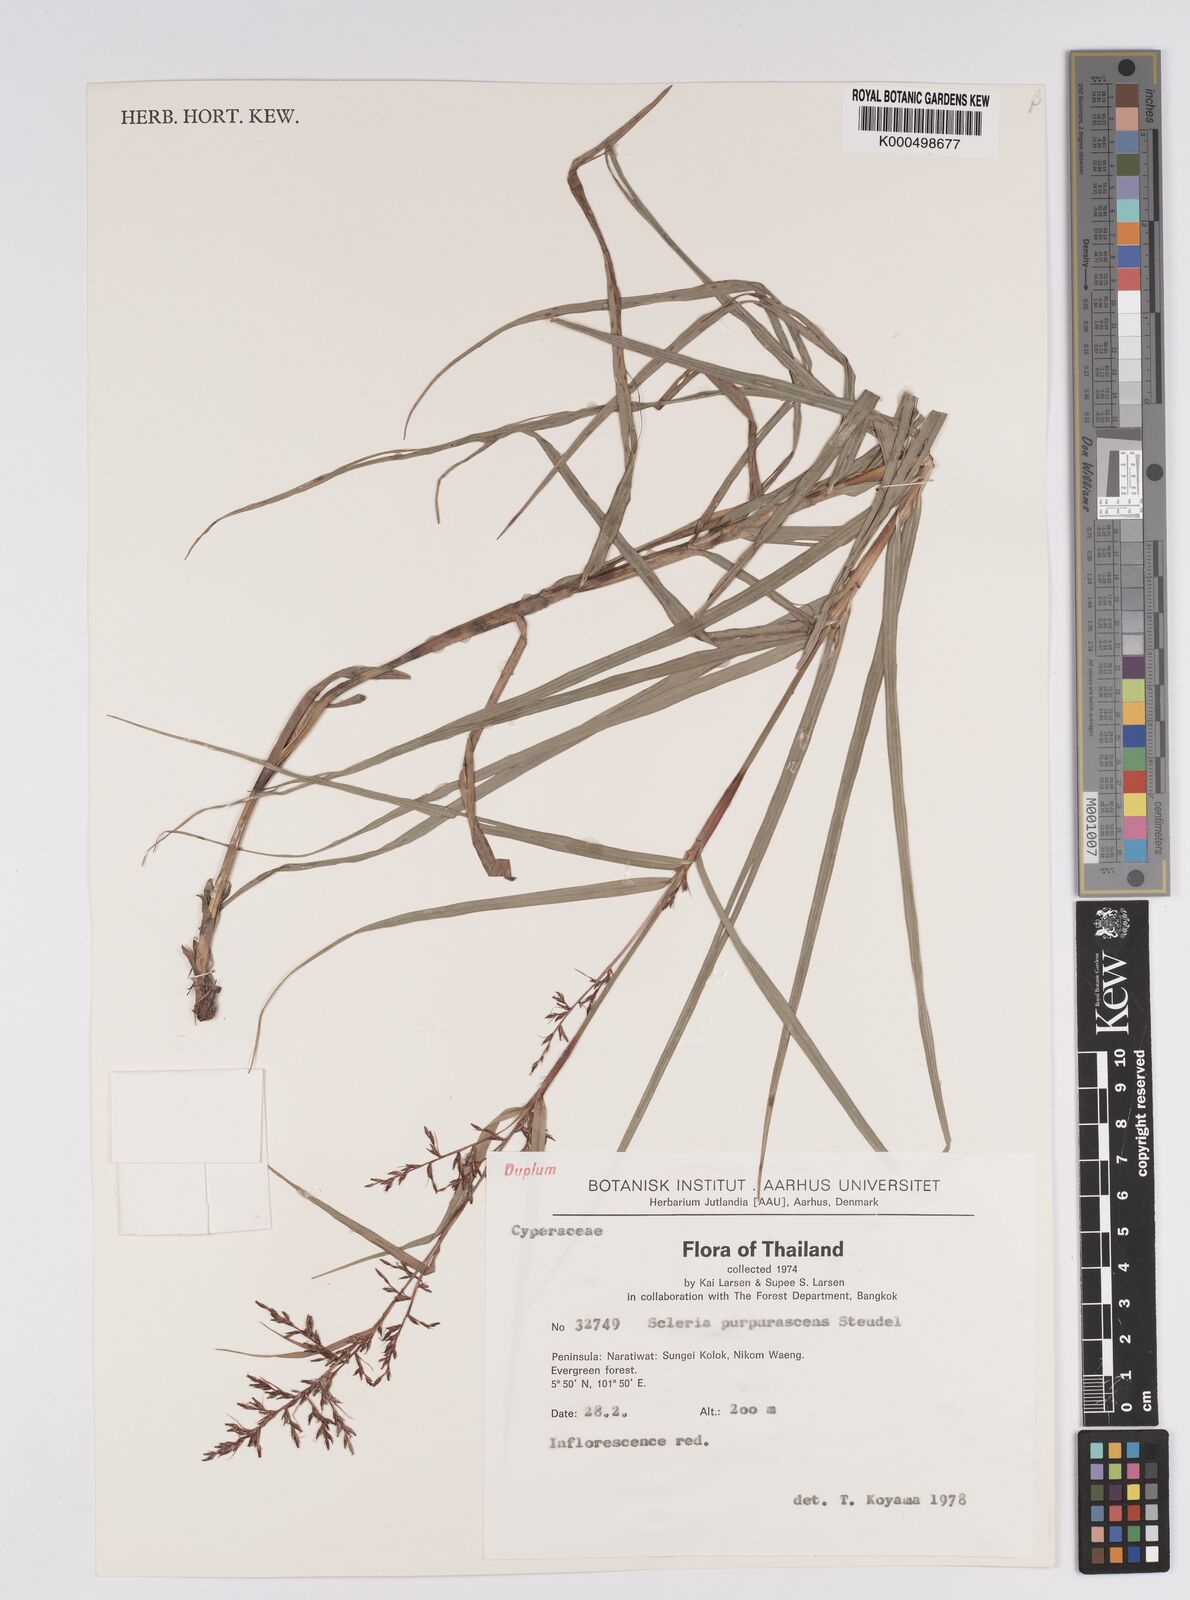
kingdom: Plantae
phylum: Tracheophyta
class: Liliopsida
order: Poales
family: Cyperaceae
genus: Scleria
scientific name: Scleria purpurascens
